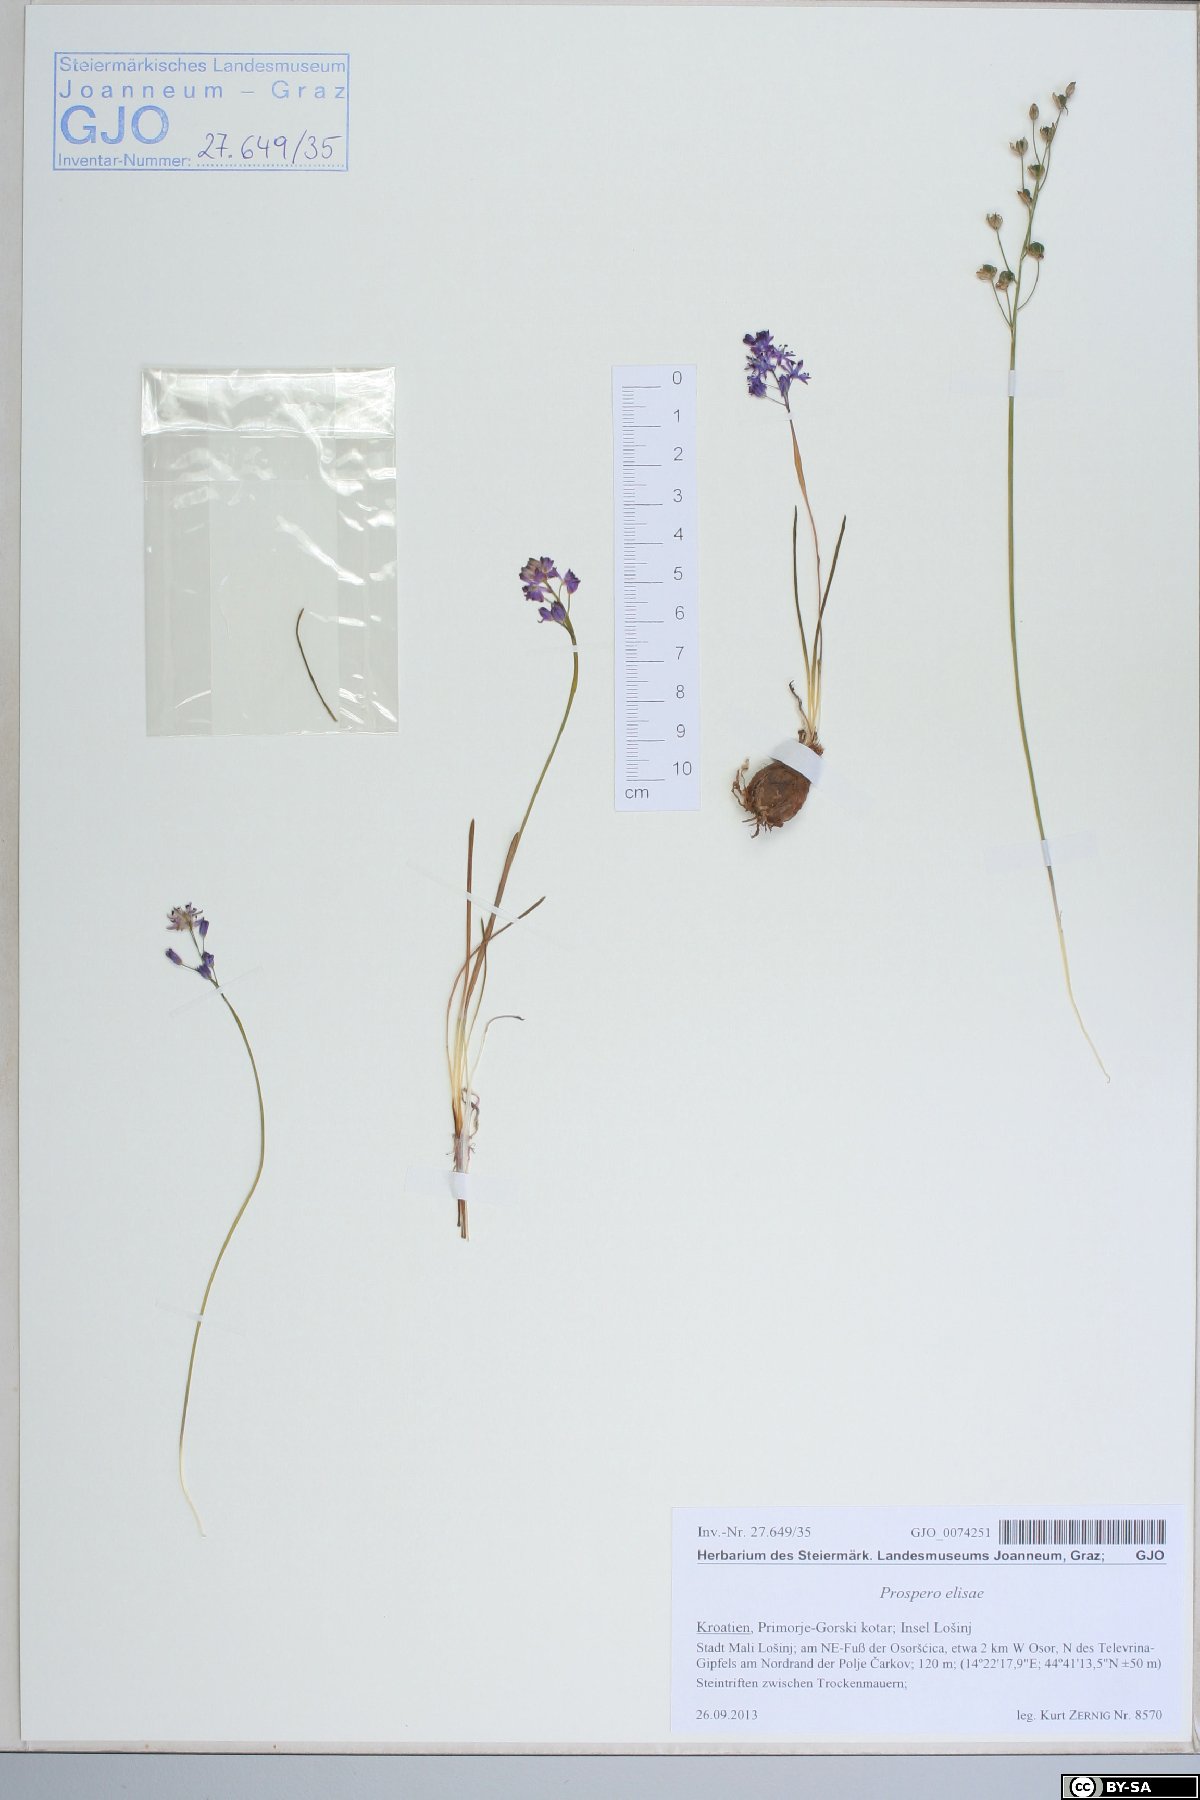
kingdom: Plantae
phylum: Tracheophyta
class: Liliopsida
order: Asparagales
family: Asparagaceae
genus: Prospero
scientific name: Prospero elisae
